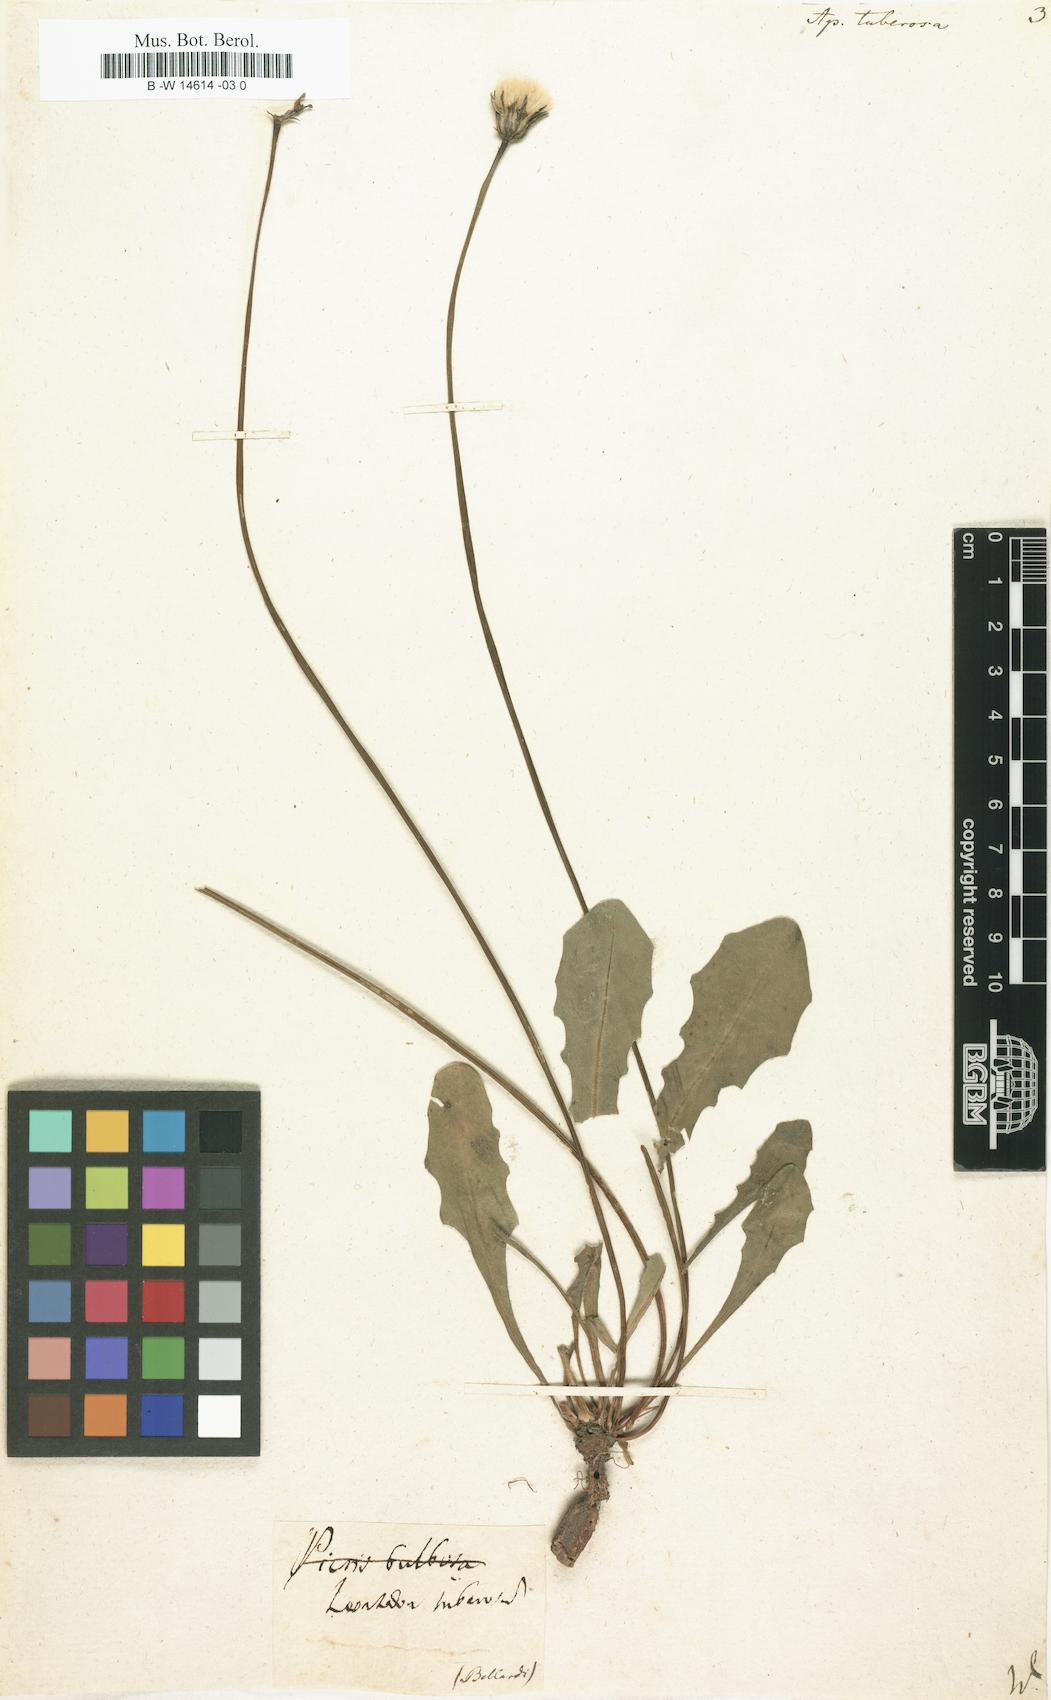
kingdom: Plantae
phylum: Tracheophyta
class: Magnoliopsida
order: Asterales
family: Asteraceae
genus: Thrincia
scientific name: Thrincia tuberosa
